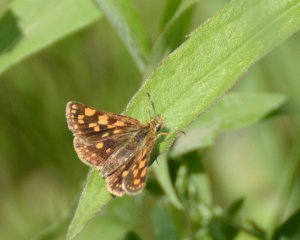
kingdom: Animalia
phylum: Arthropoda
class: Insecta
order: Lepidoptera
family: Hesperiidae
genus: Carterocephalus
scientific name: Carterocephalus palaemon
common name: Chequered Skipper
